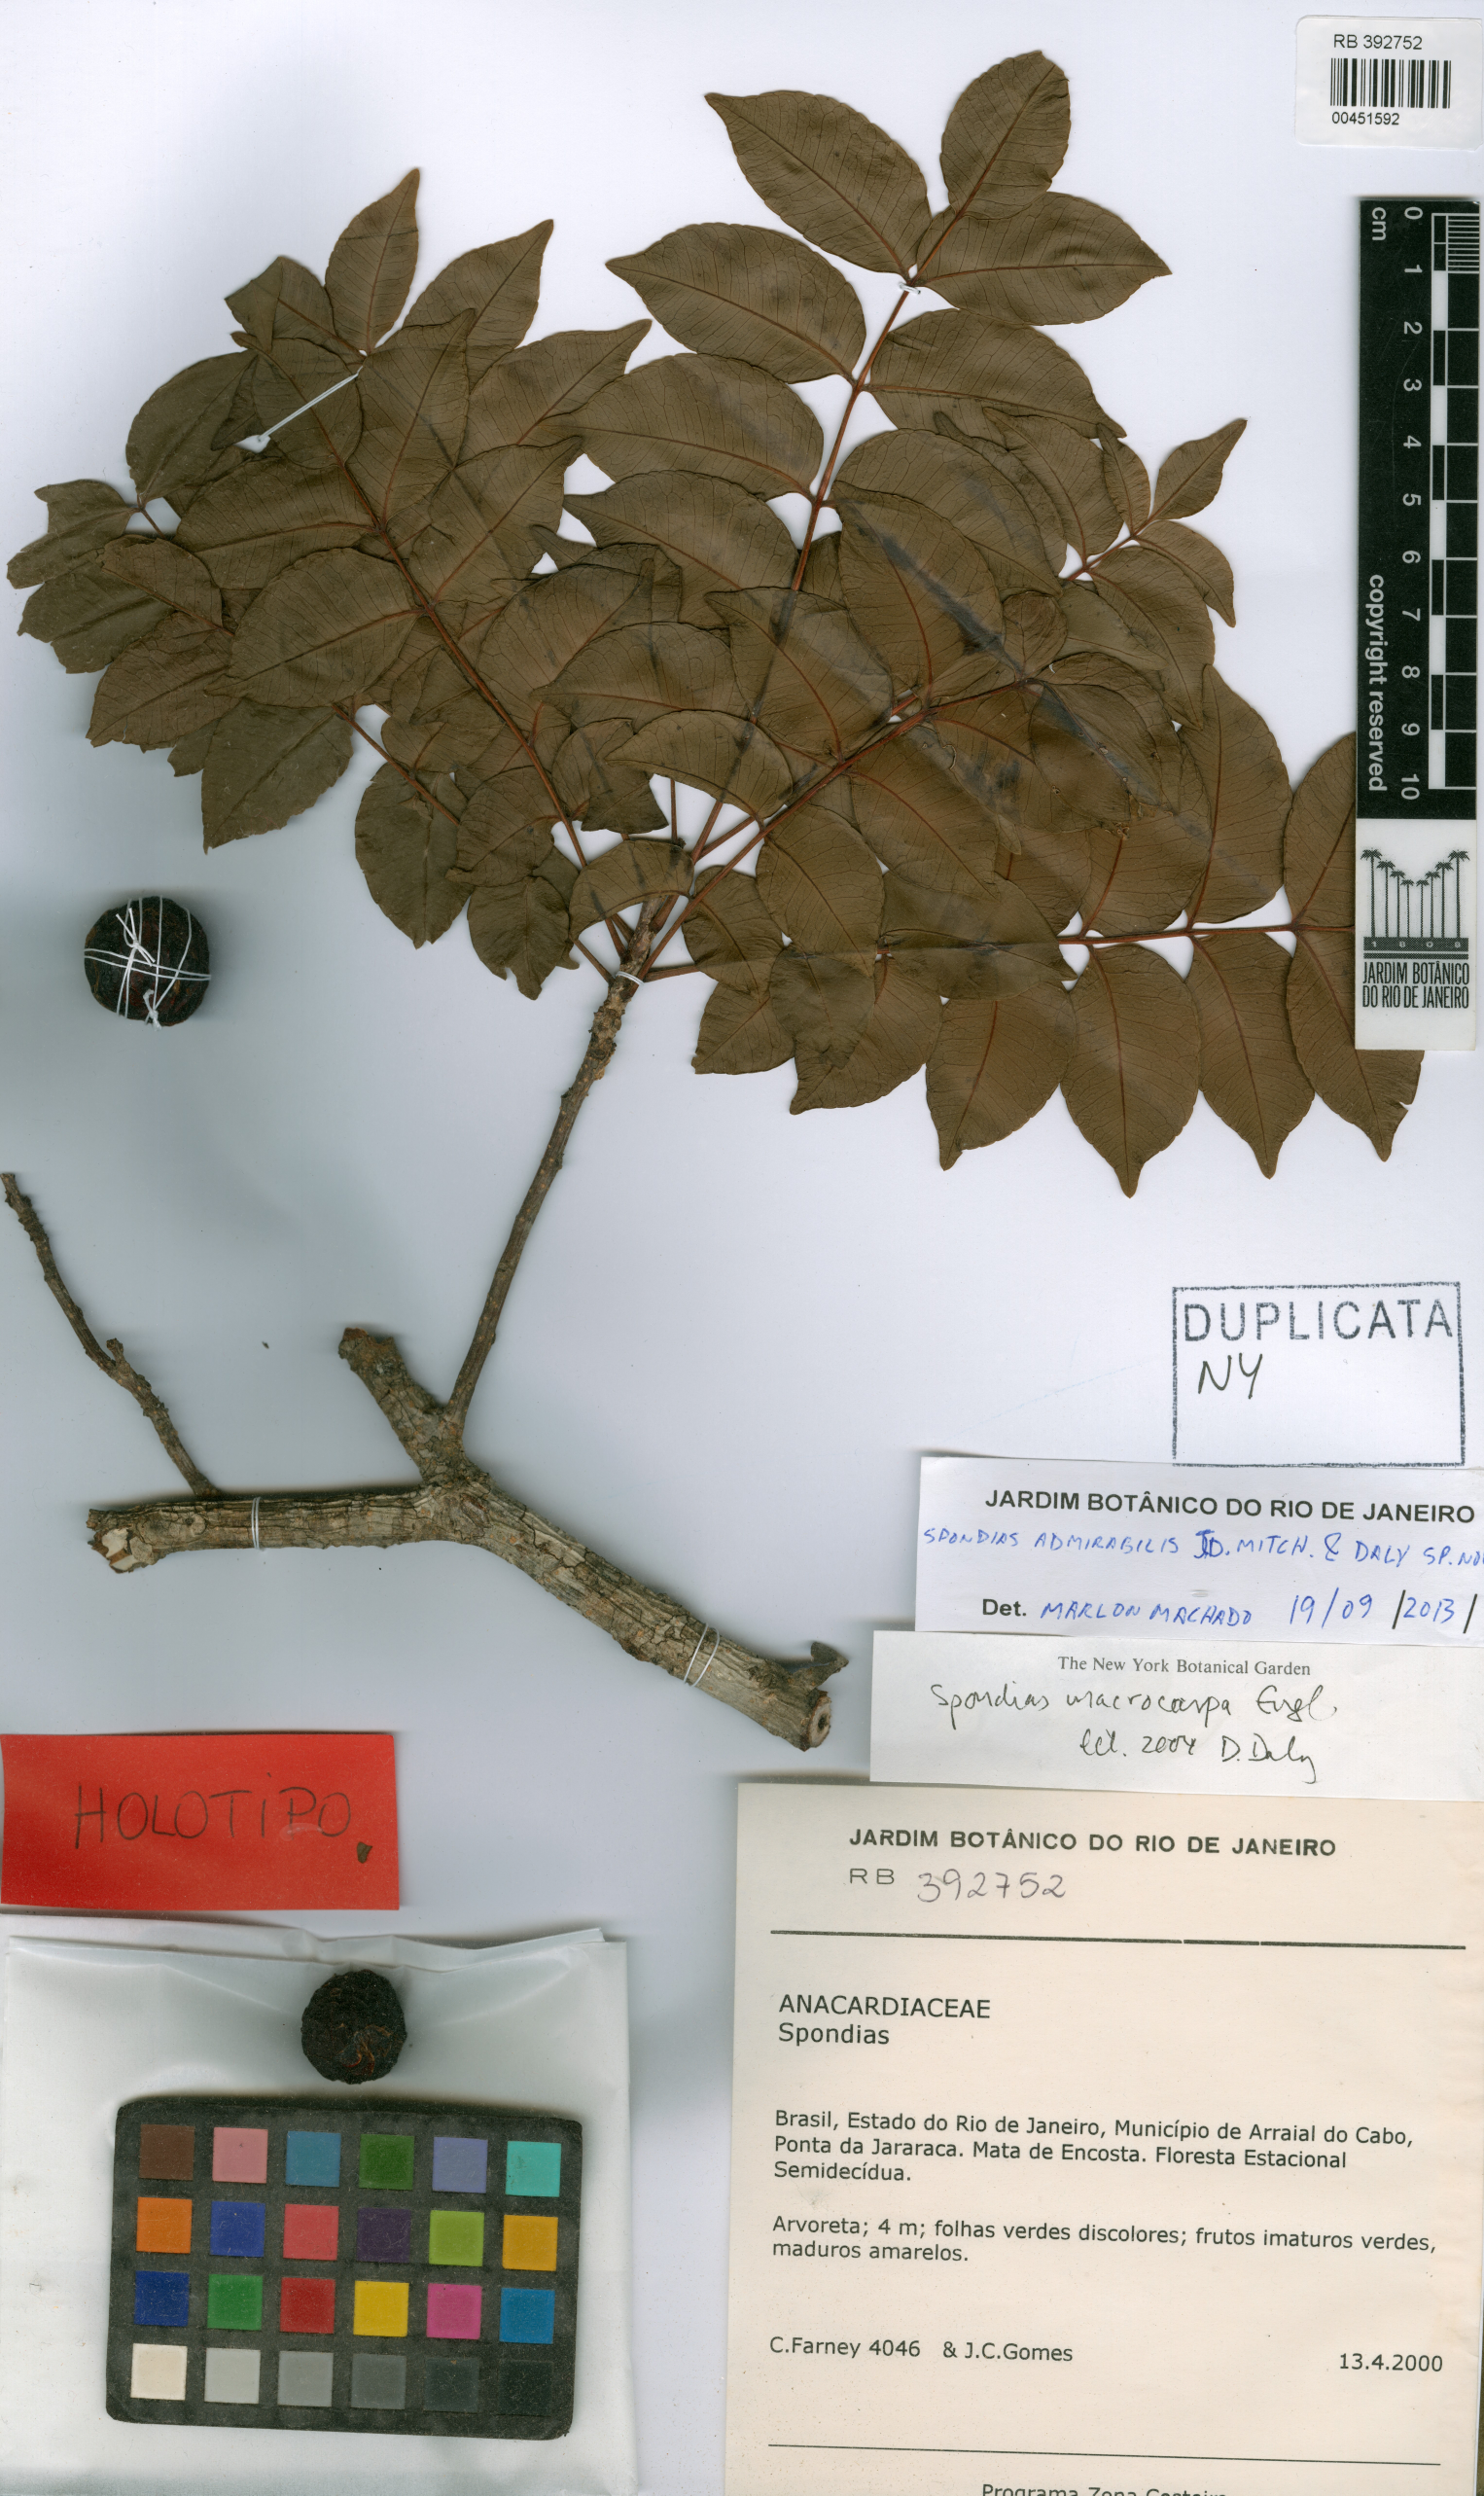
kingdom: Plantae
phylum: Tracheophyta
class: Magnoliopsida
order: Sapindales
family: Anacardiaceae
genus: Spondias
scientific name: Spondias admirabilis
